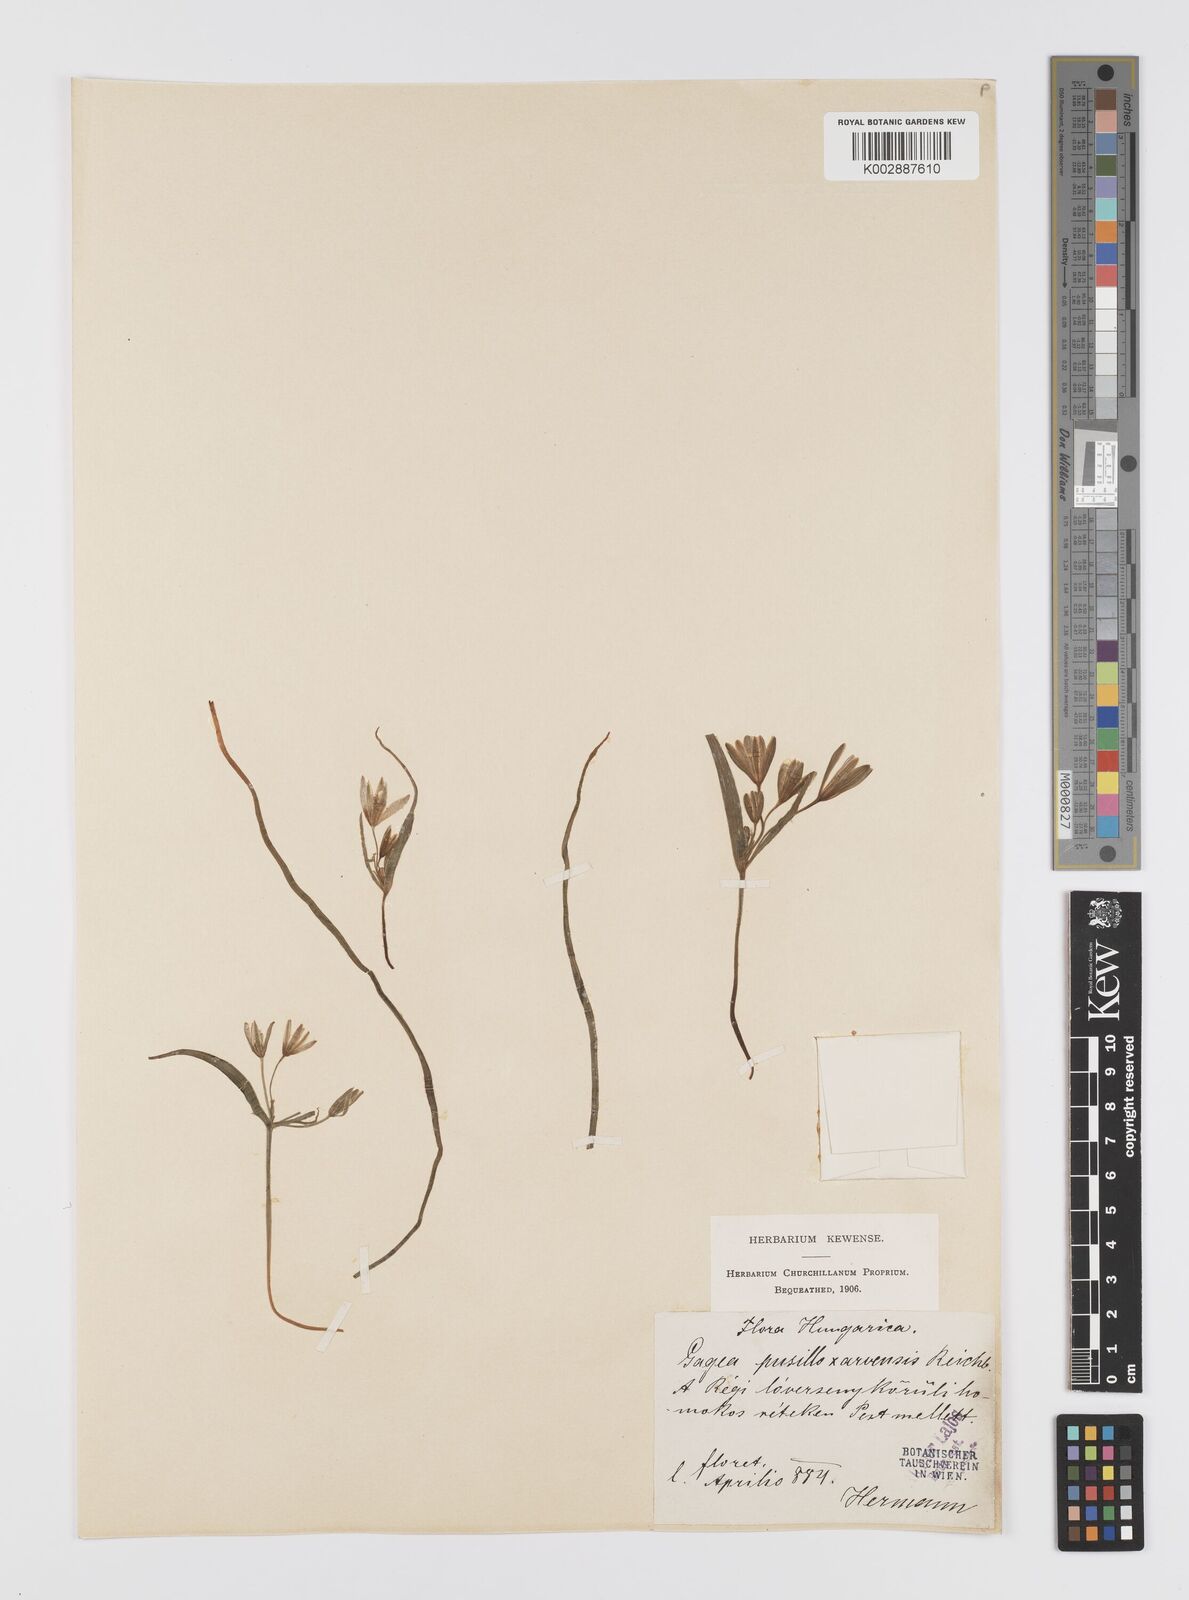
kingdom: Plantae
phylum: Tracheophyta
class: Liliopsida
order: Liliales
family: Liliaceae
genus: Gagea
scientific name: Gagea pusilla
